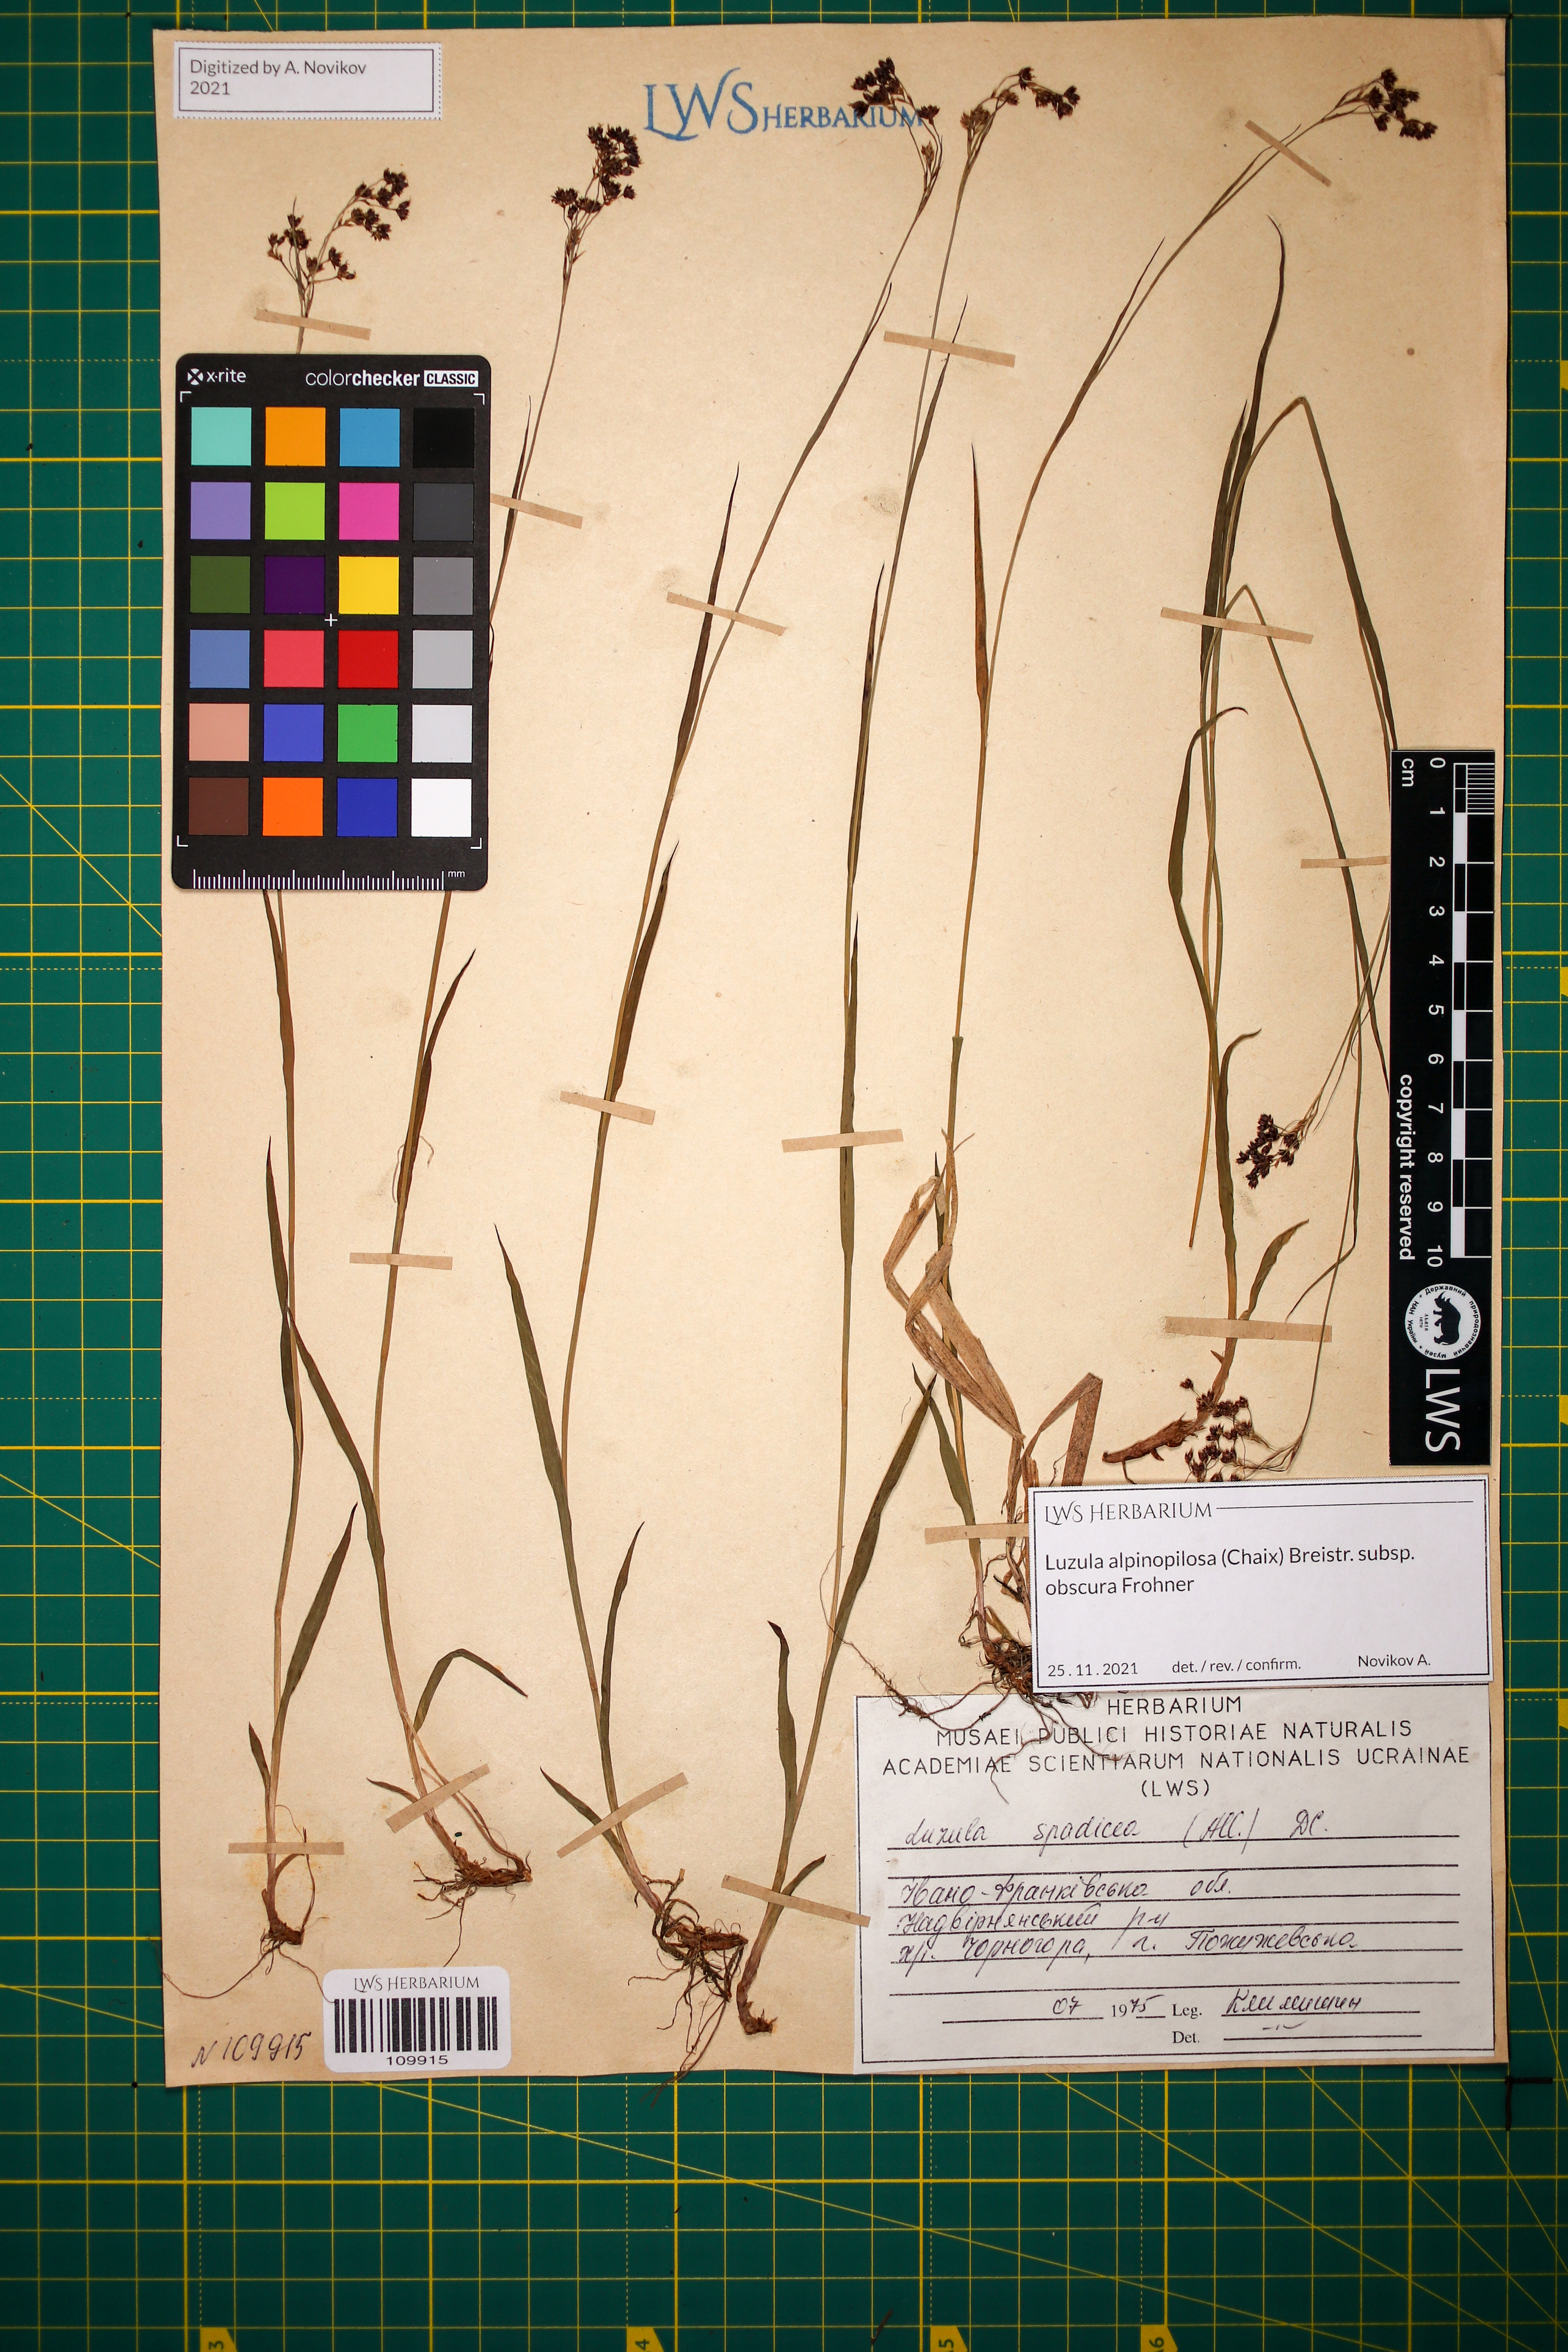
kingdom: Plantae
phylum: Tracheophyta
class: Liliopsida
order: Poales
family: Juncaceae
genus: Luzula
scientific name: Luzula alpinopilosa
